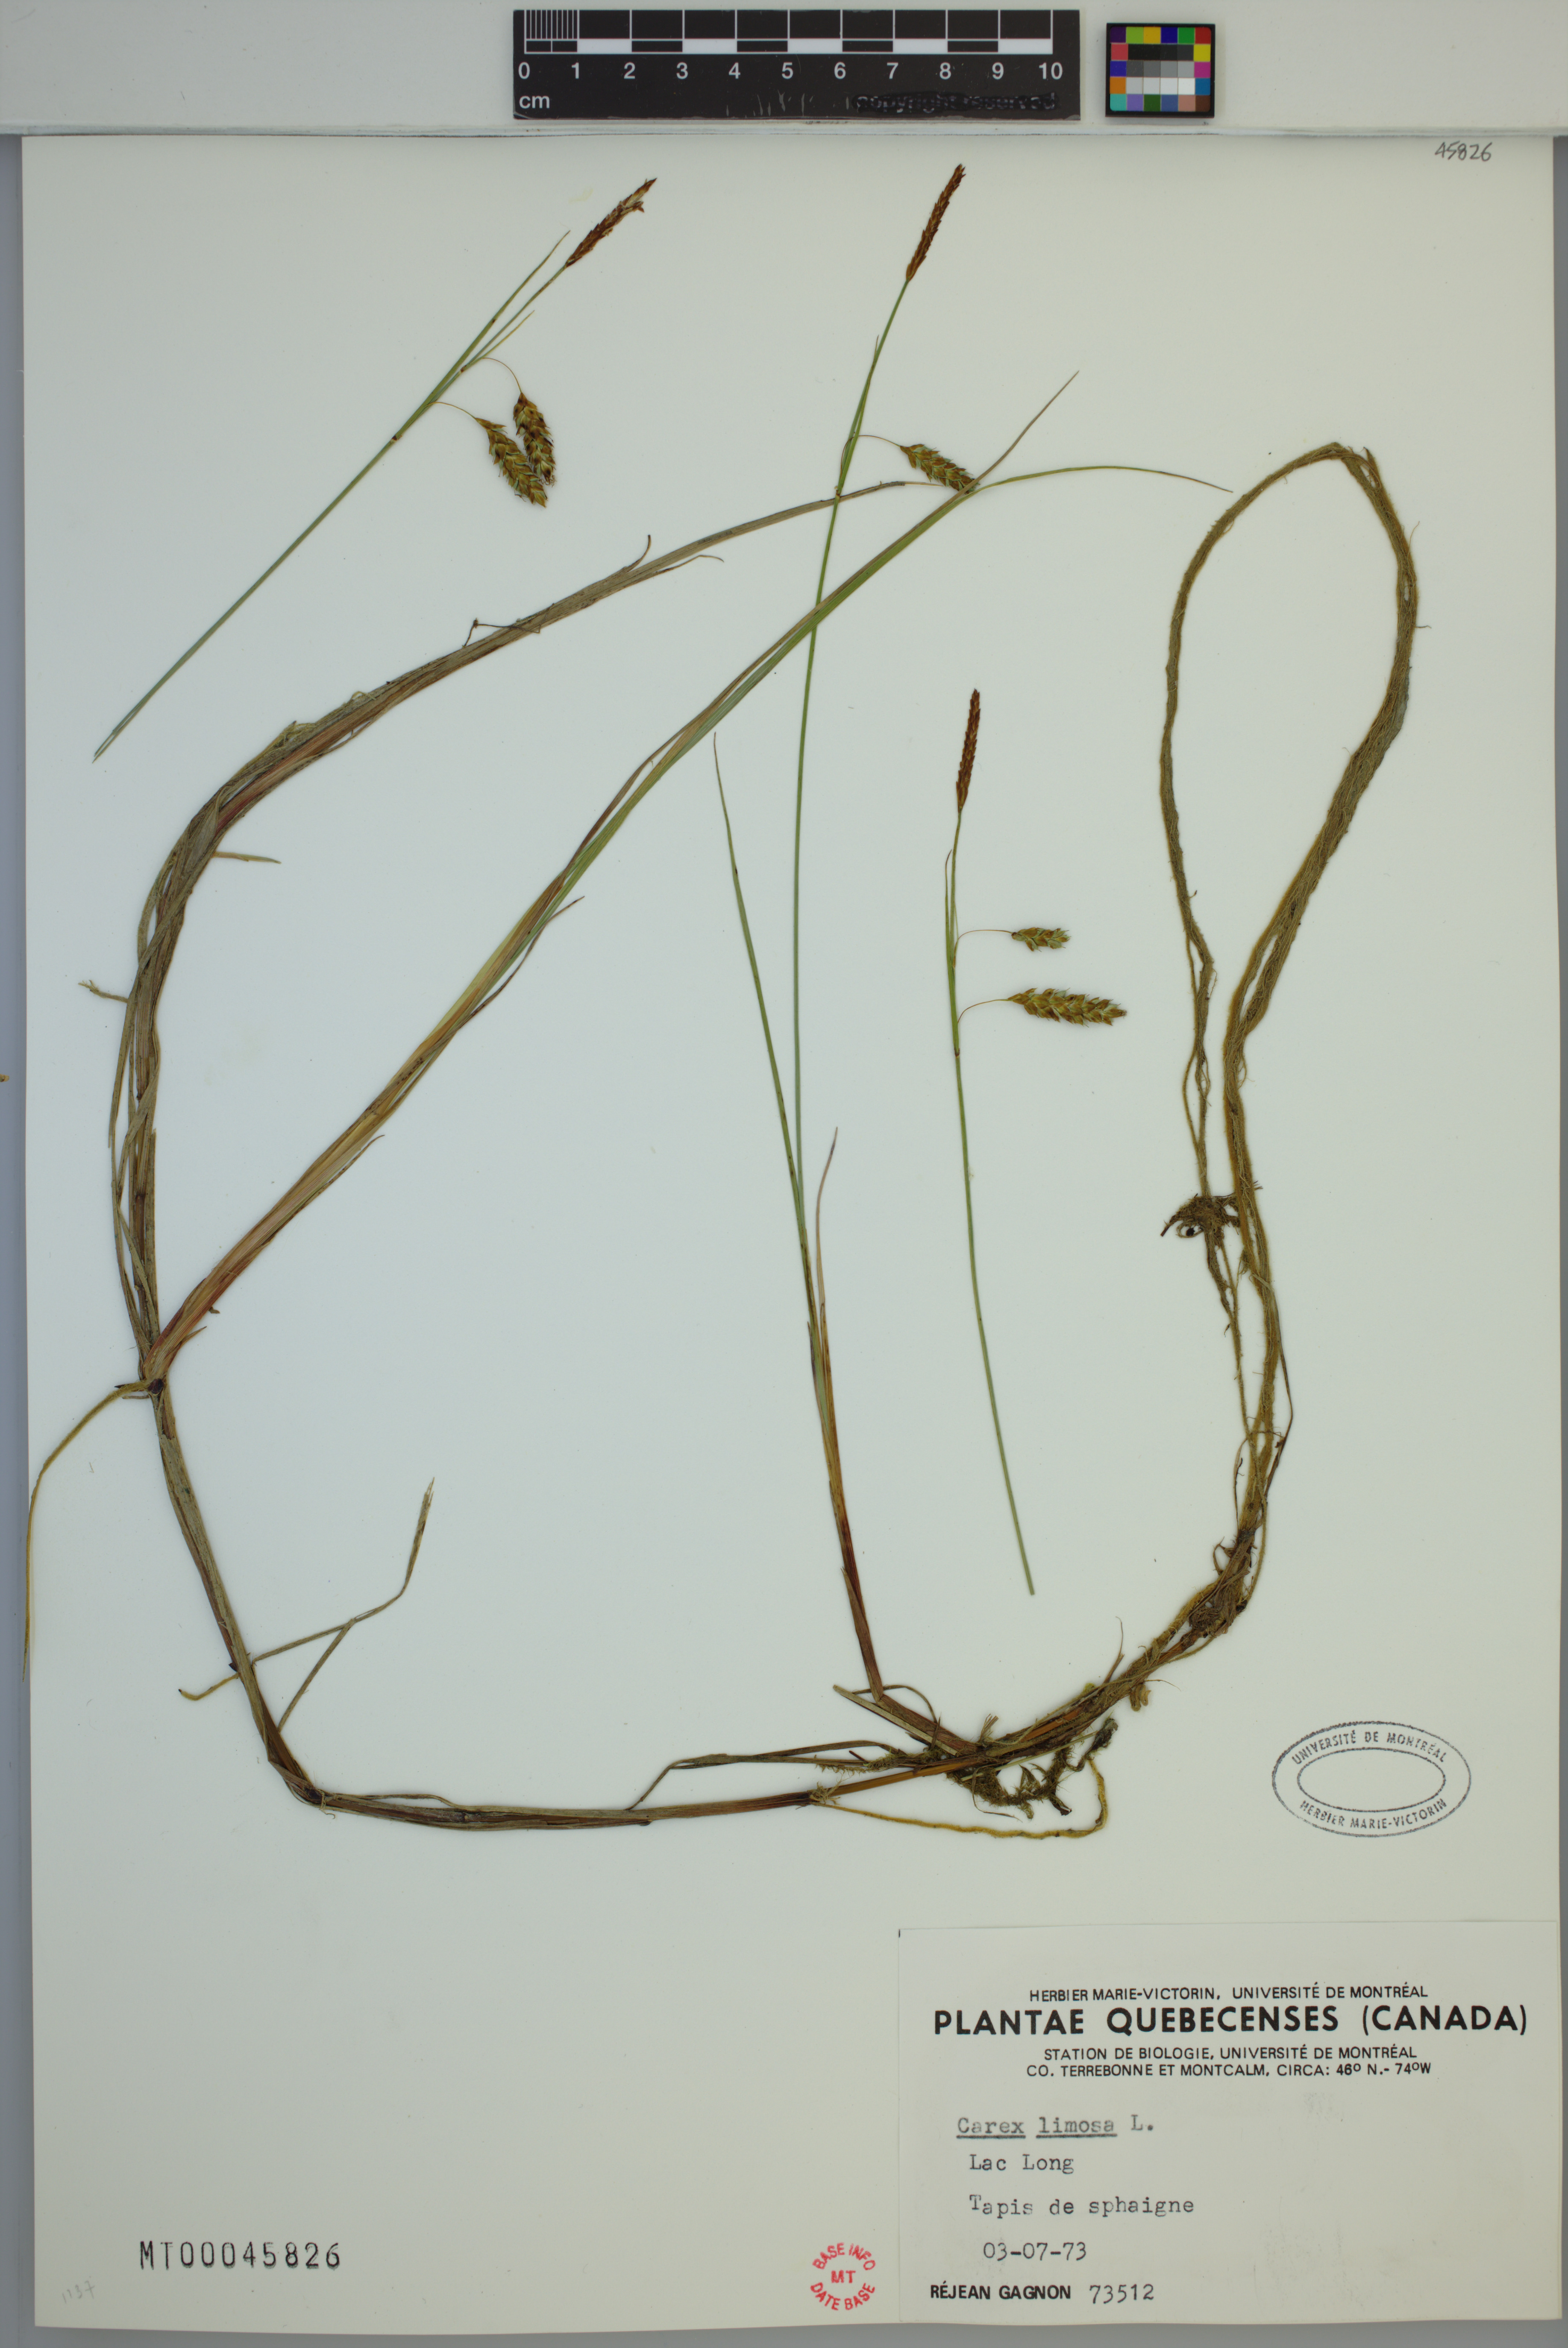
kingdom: Plantae
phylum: Tracheophyta
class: Liliopsida
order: Poales
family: Cyperaceae
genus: Carex
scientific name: Carex limosa
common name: Bog sedge
